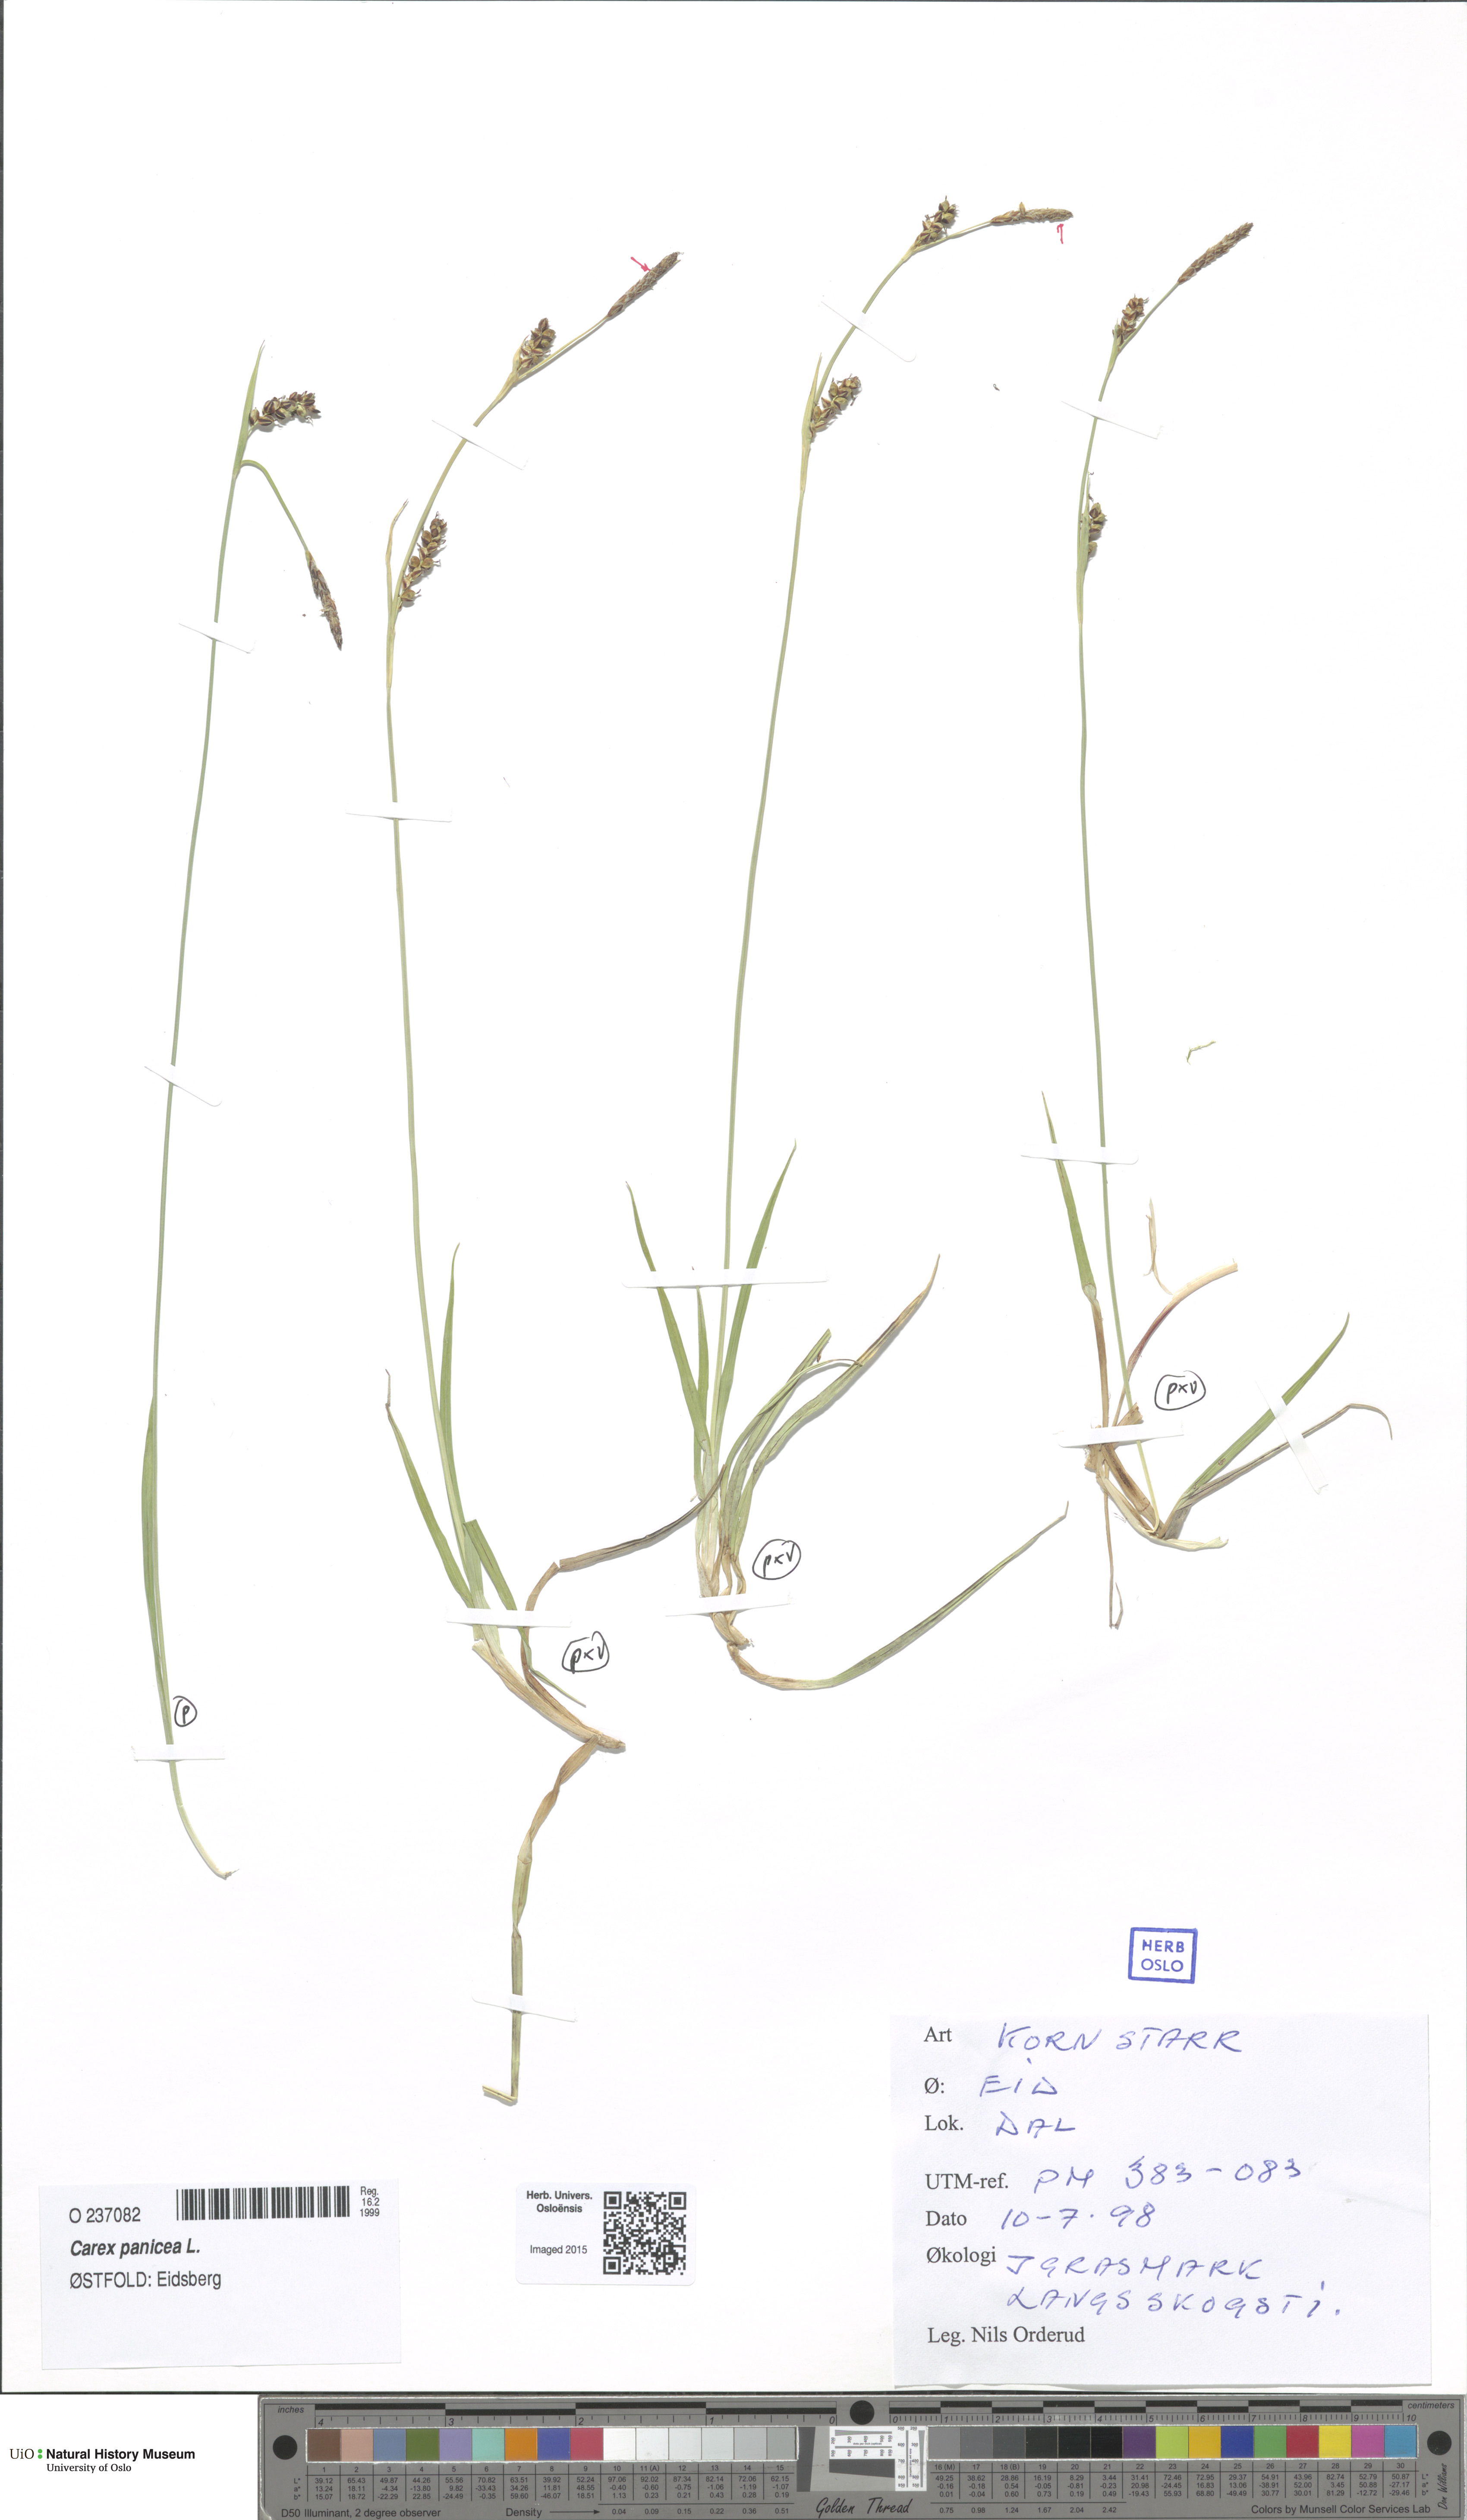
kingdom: Plantae
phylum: Tracheophyta
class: Liliopsida
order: Poales
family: Cyperaceae
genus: Carex
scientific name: Carex panicea
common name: Carnation sedge
